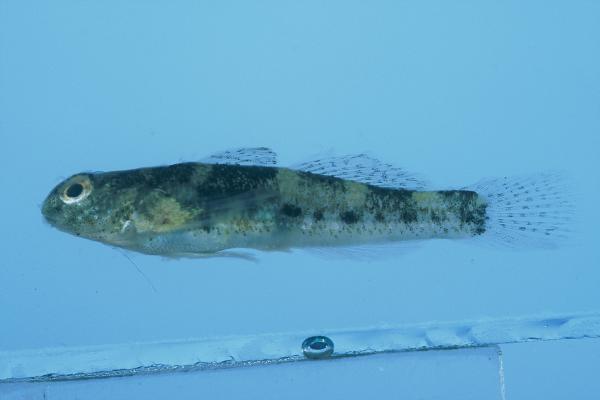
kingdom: Animalia
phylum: Chordata
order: Perciformes
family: Gobiidae
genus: Bathygobius
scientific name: Bathygobius cocosensis
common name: Cocos frillgoby
